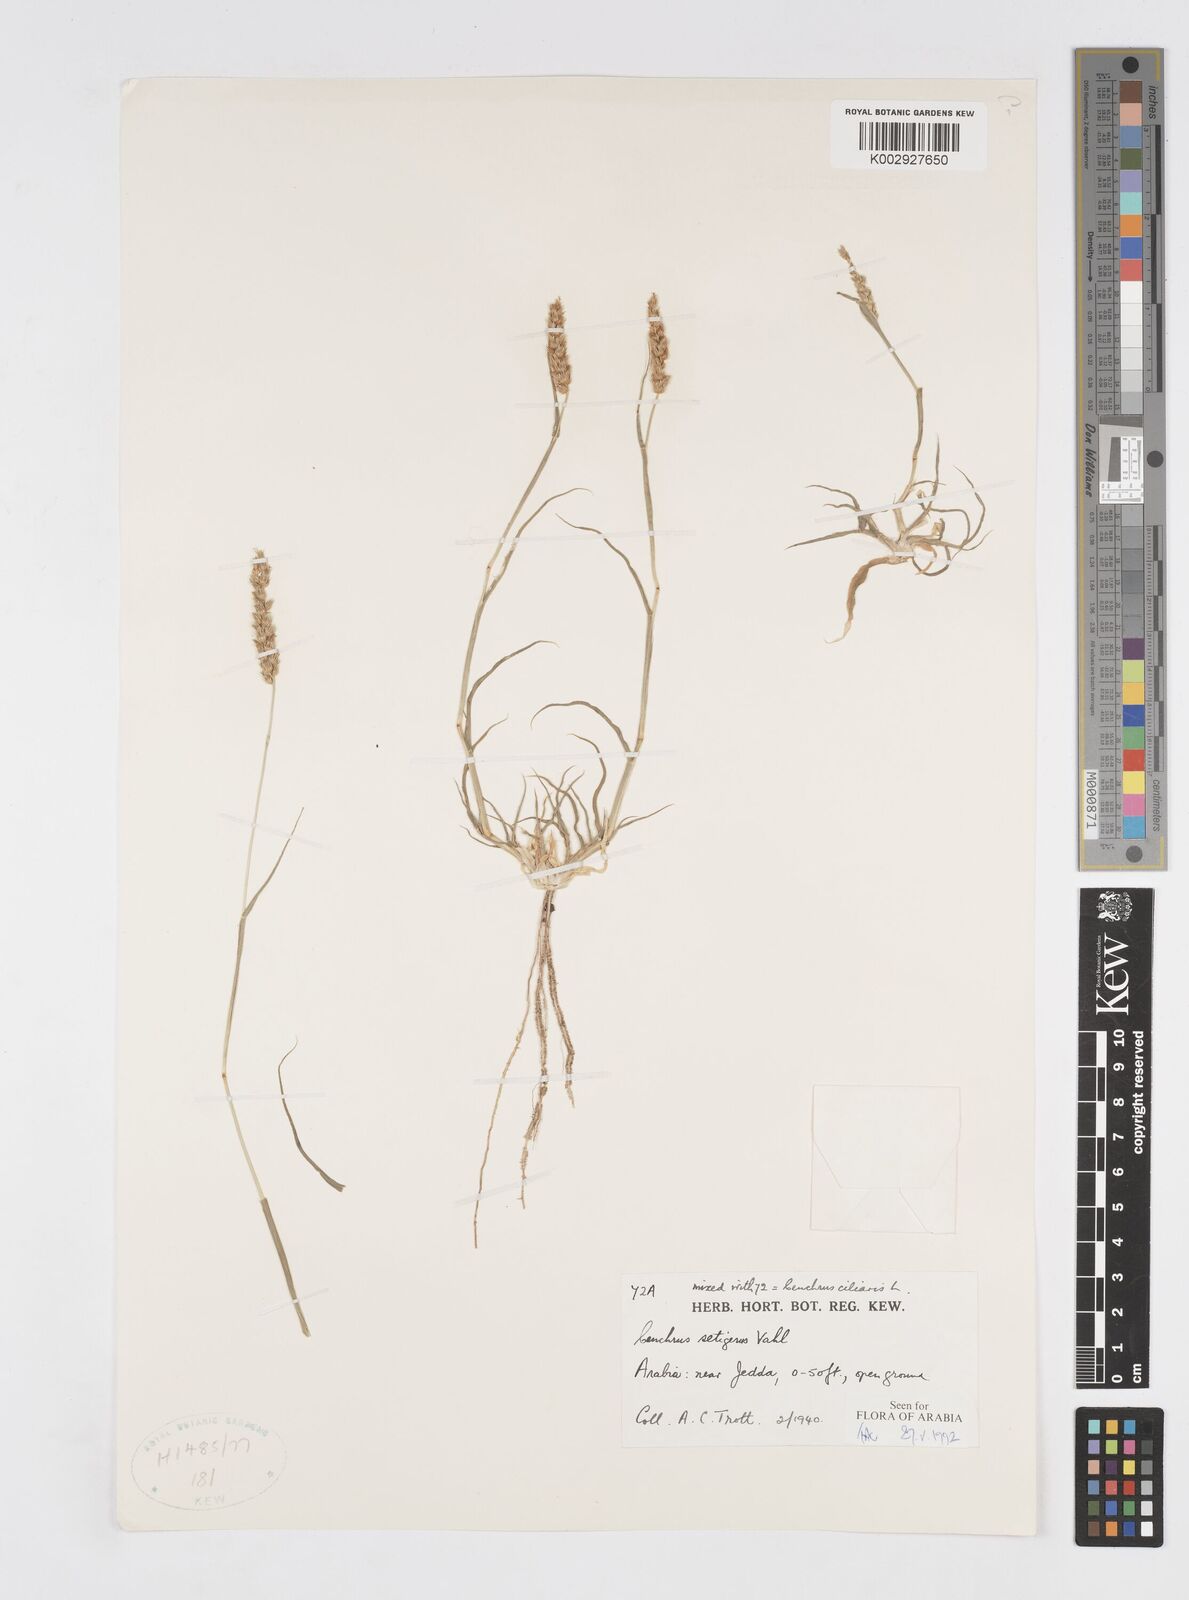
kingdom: Plantae
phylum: Tracheophyta
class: Liliopsida
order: Poales
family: Poaceae
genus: Cenchrus
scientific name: Cenchrus setigerus
